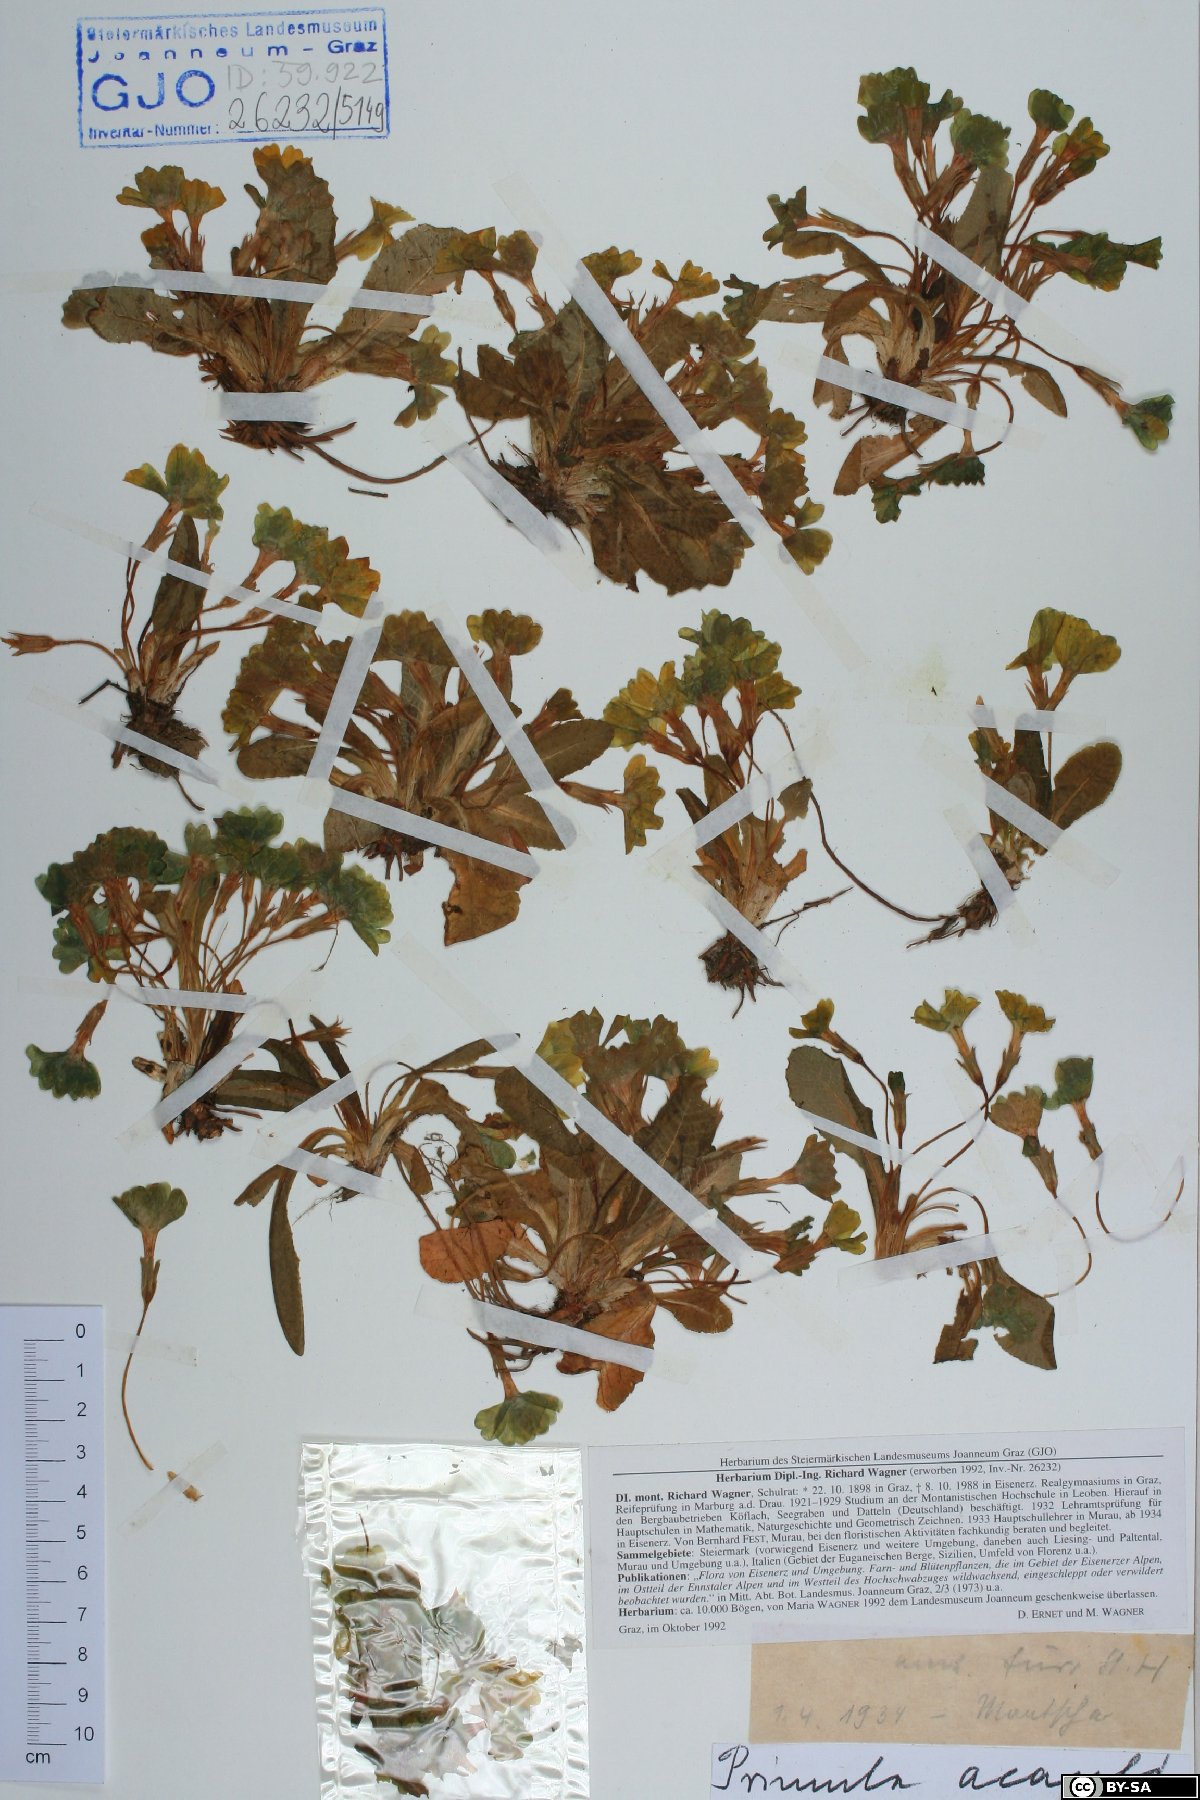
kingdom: Plantae
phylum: Tracheophyta
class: Magnoliopsida
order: Ericales
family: Primulaceae
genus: Primula
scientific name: Primula vulgaris
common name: Primrose
